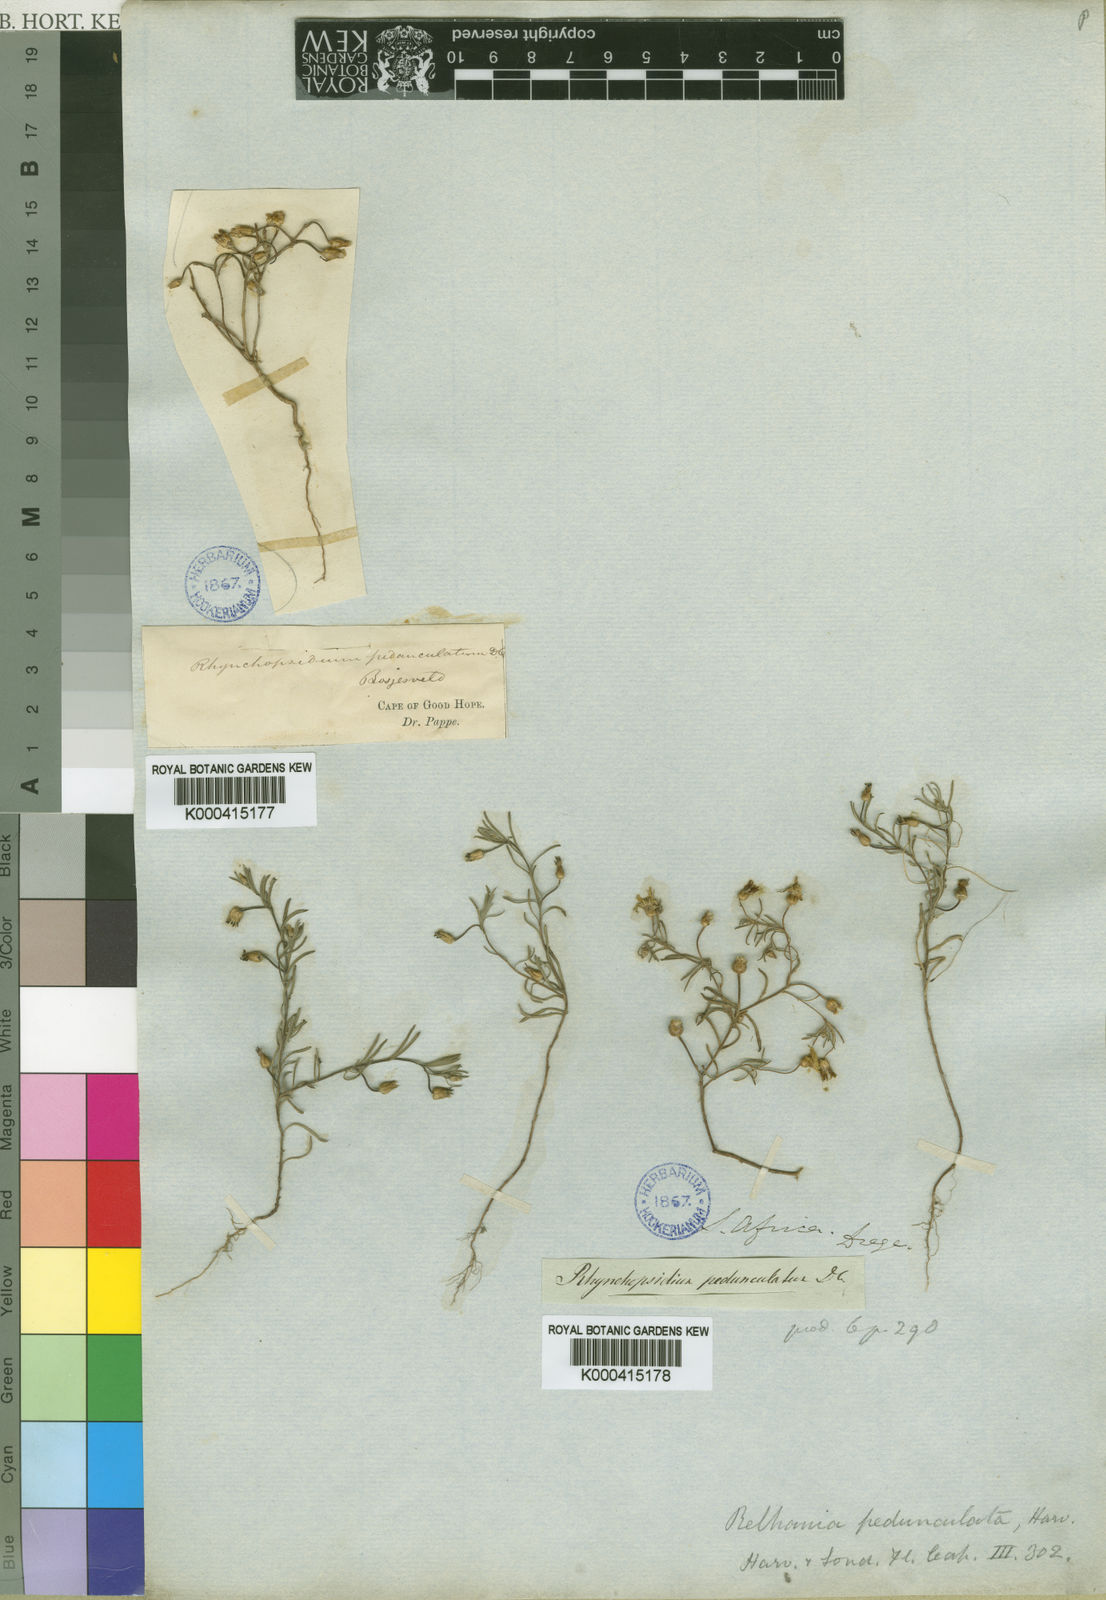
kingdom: Plantae
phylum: Tracheophyta
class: Magnoliopsida
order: Asterales
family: Asteraceae
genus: Rhynchopsidium
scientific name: Rhynchopsidium pumilum
